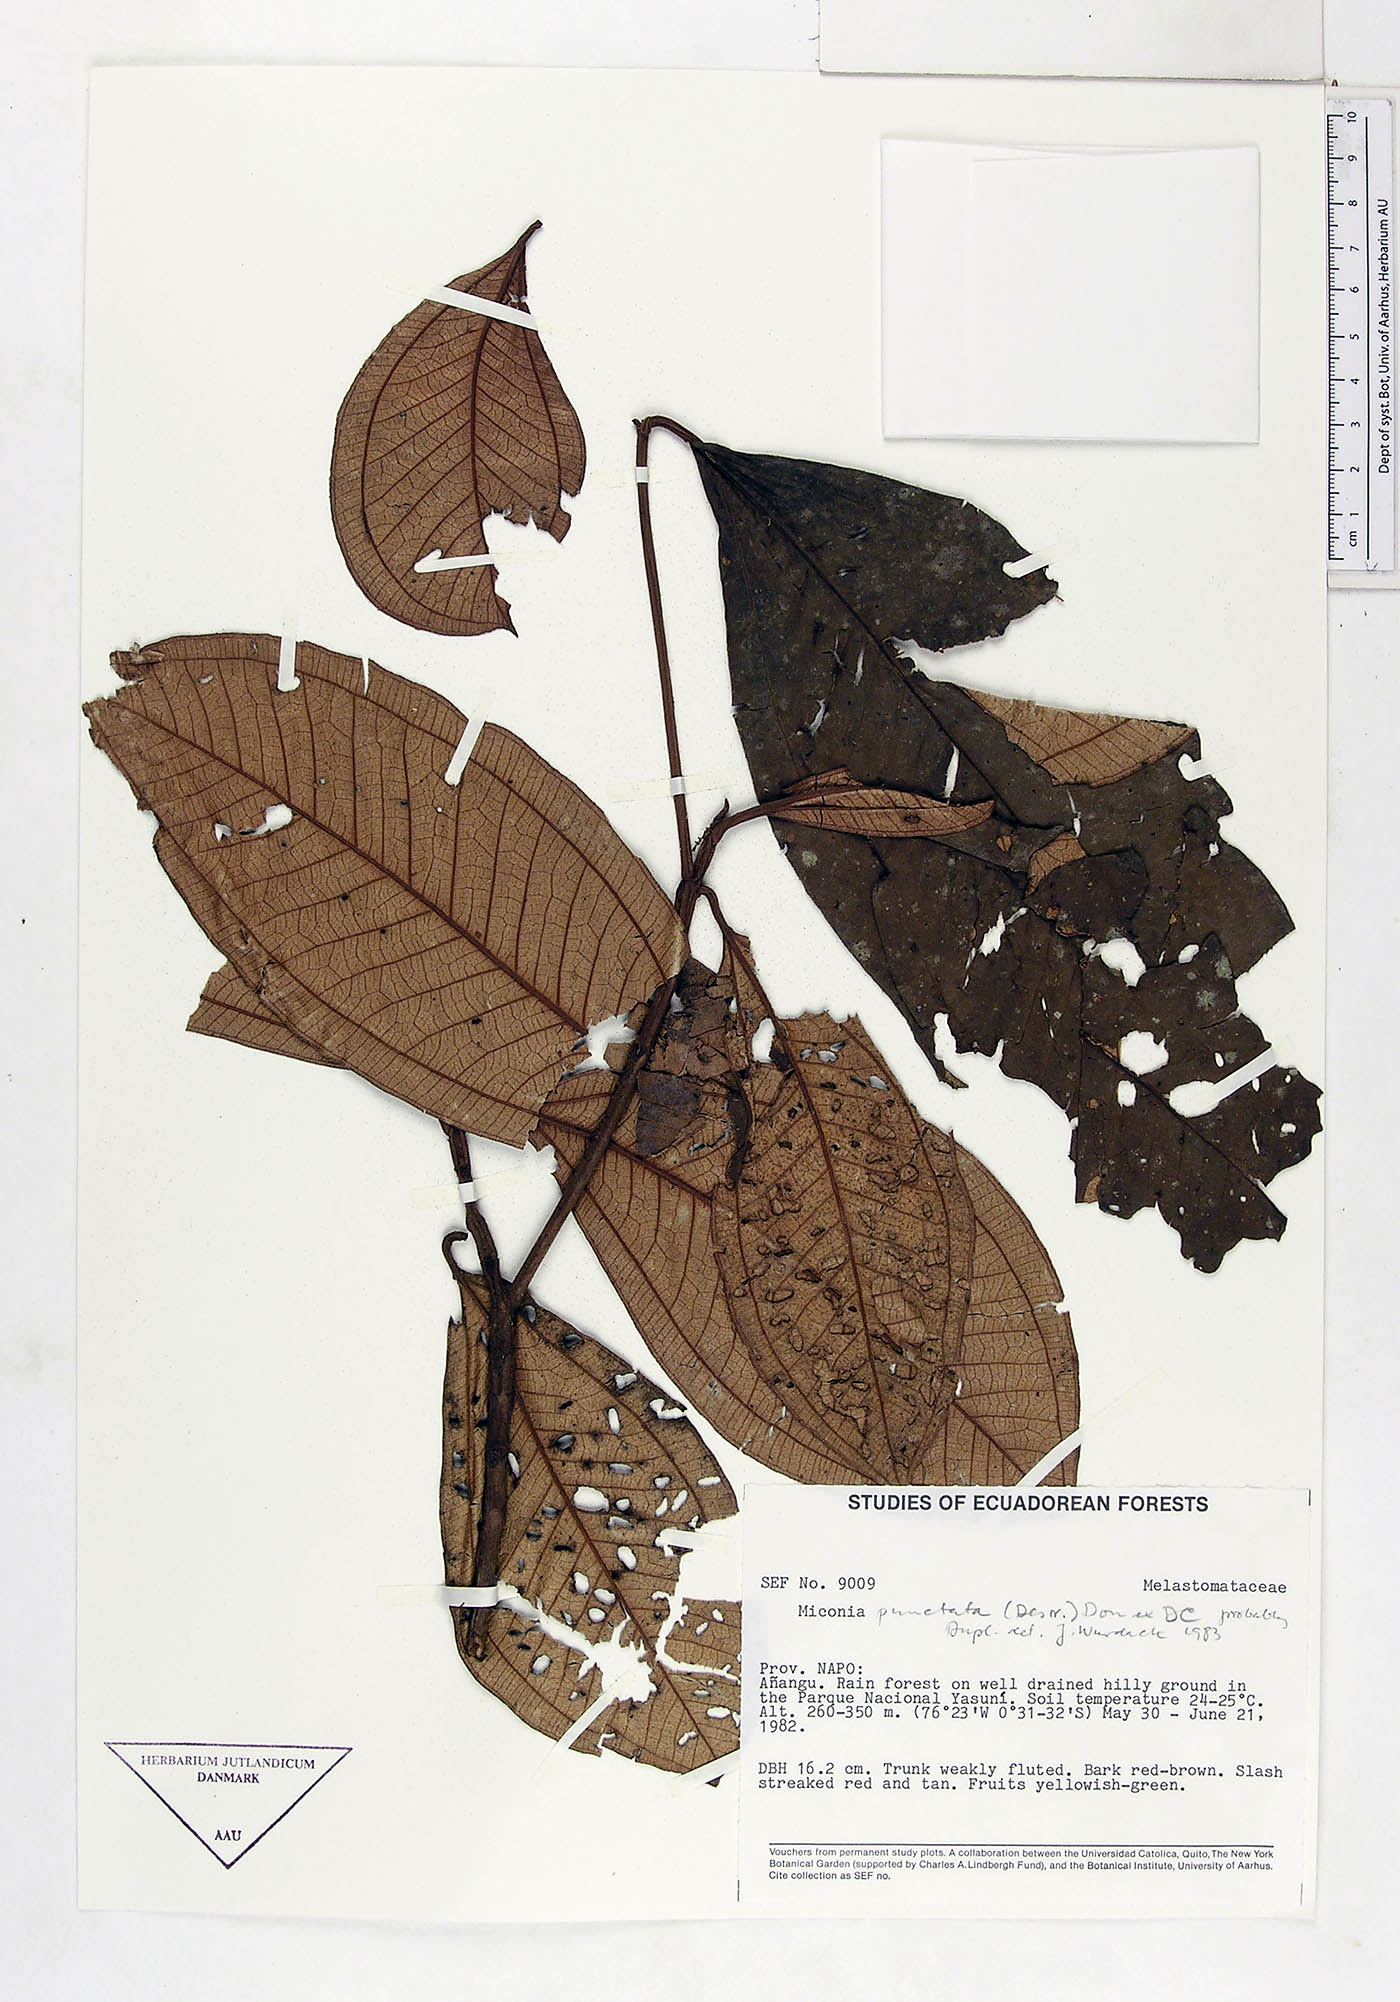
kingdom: Plantae
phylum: Tracheophyta
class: Magnoliopsida
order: Myrtales
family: Melastomataceae
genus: Miconia
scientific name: Miconia punctata
